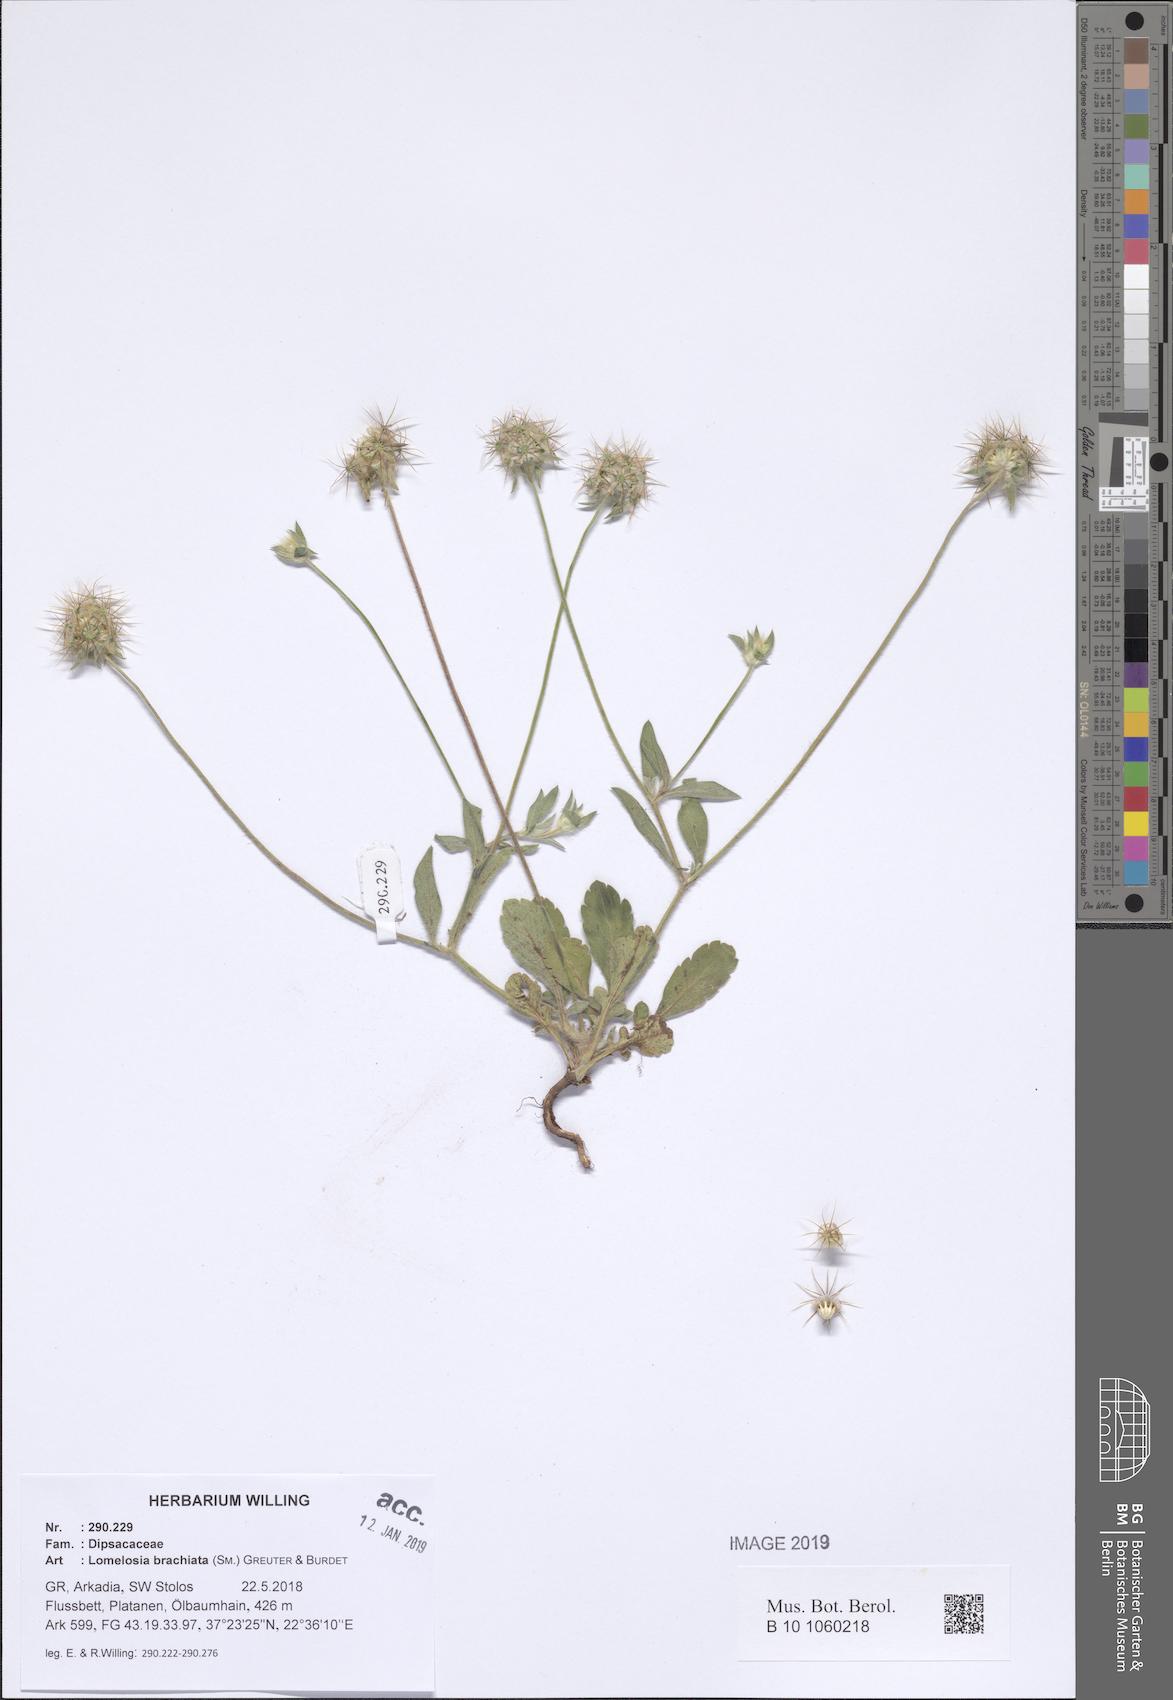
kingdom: Plantae
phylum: Tracheophyta
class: Magnoliopsida
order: Dipsacales
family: Caprifoliaceae
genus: Lomelosia
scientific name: Lomelosia brachiata
